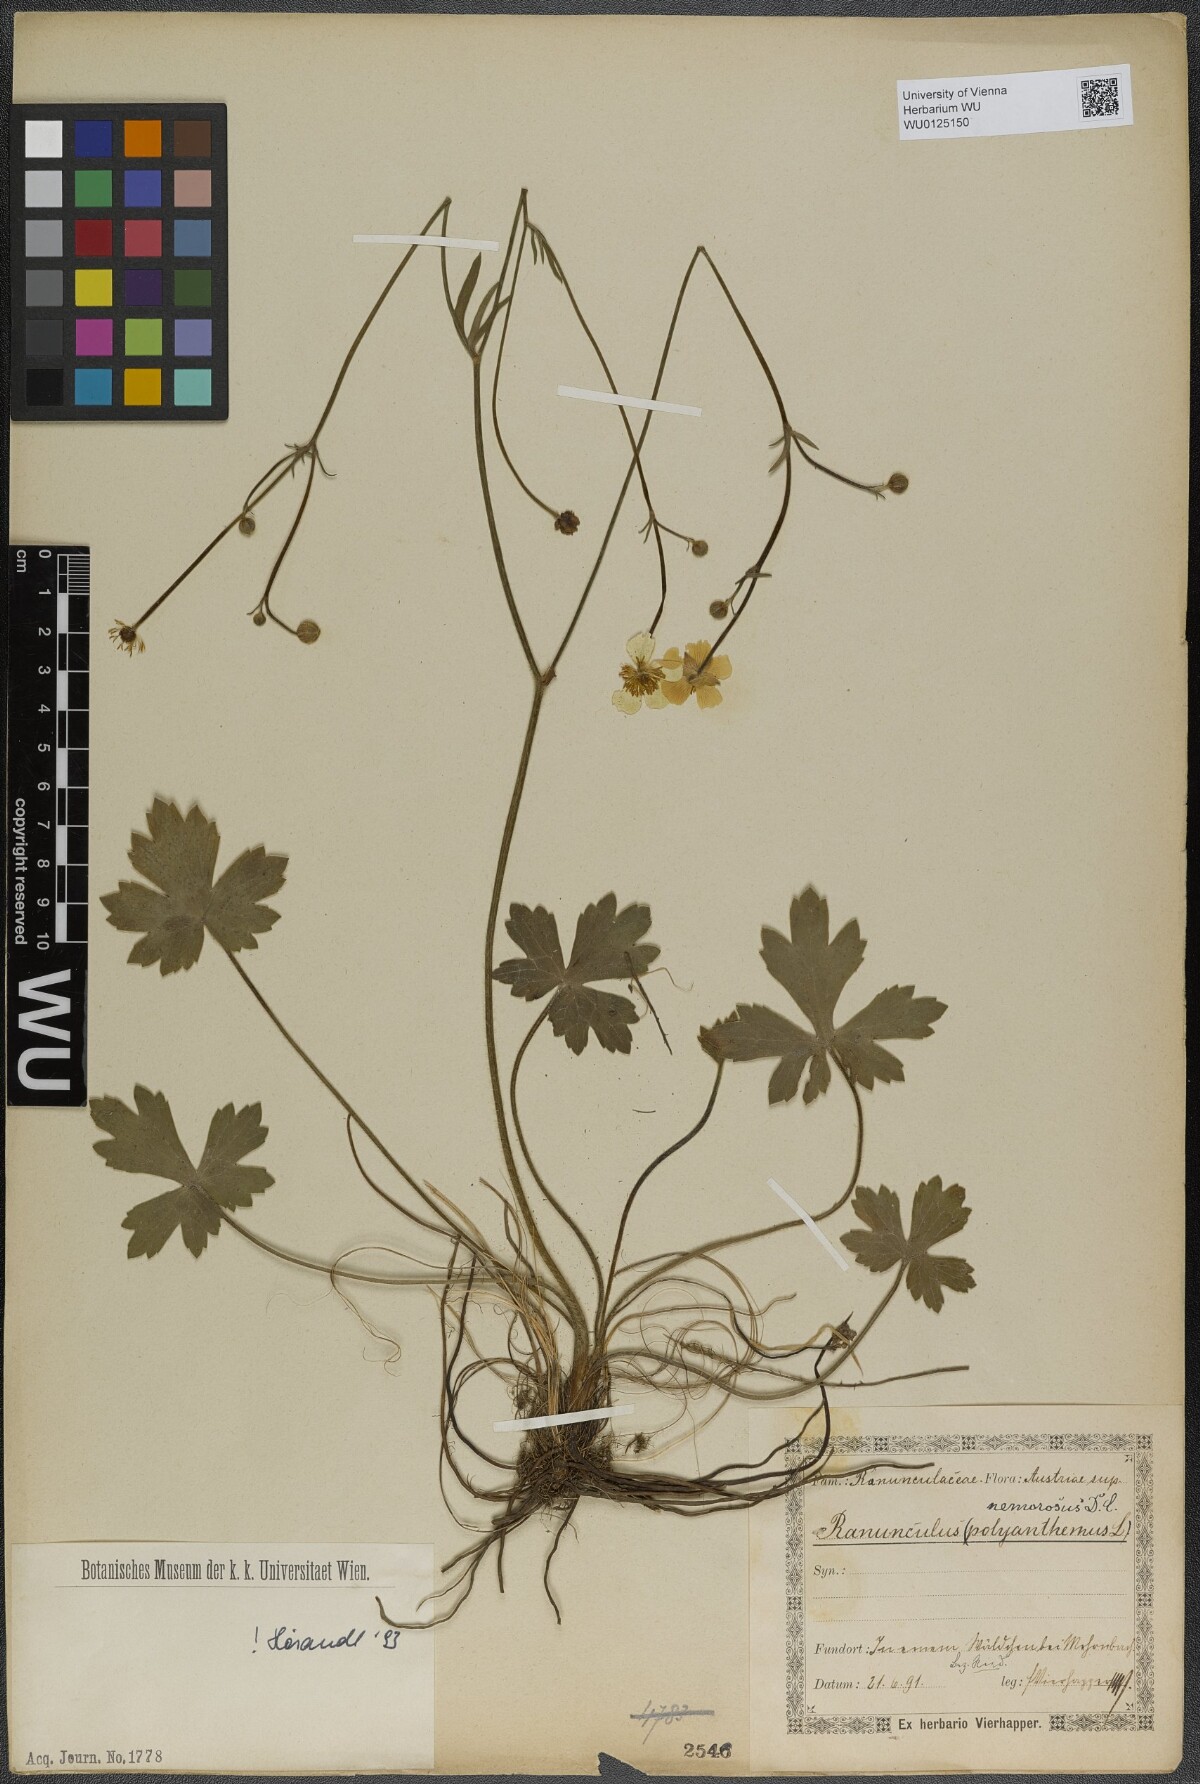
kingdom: Plantae
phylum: Tracheophyta
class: Magnoliopsida
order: Ranunculales
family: Ranunculaceae
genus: Ranunculus
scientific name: Ranunculus polyanthemos
